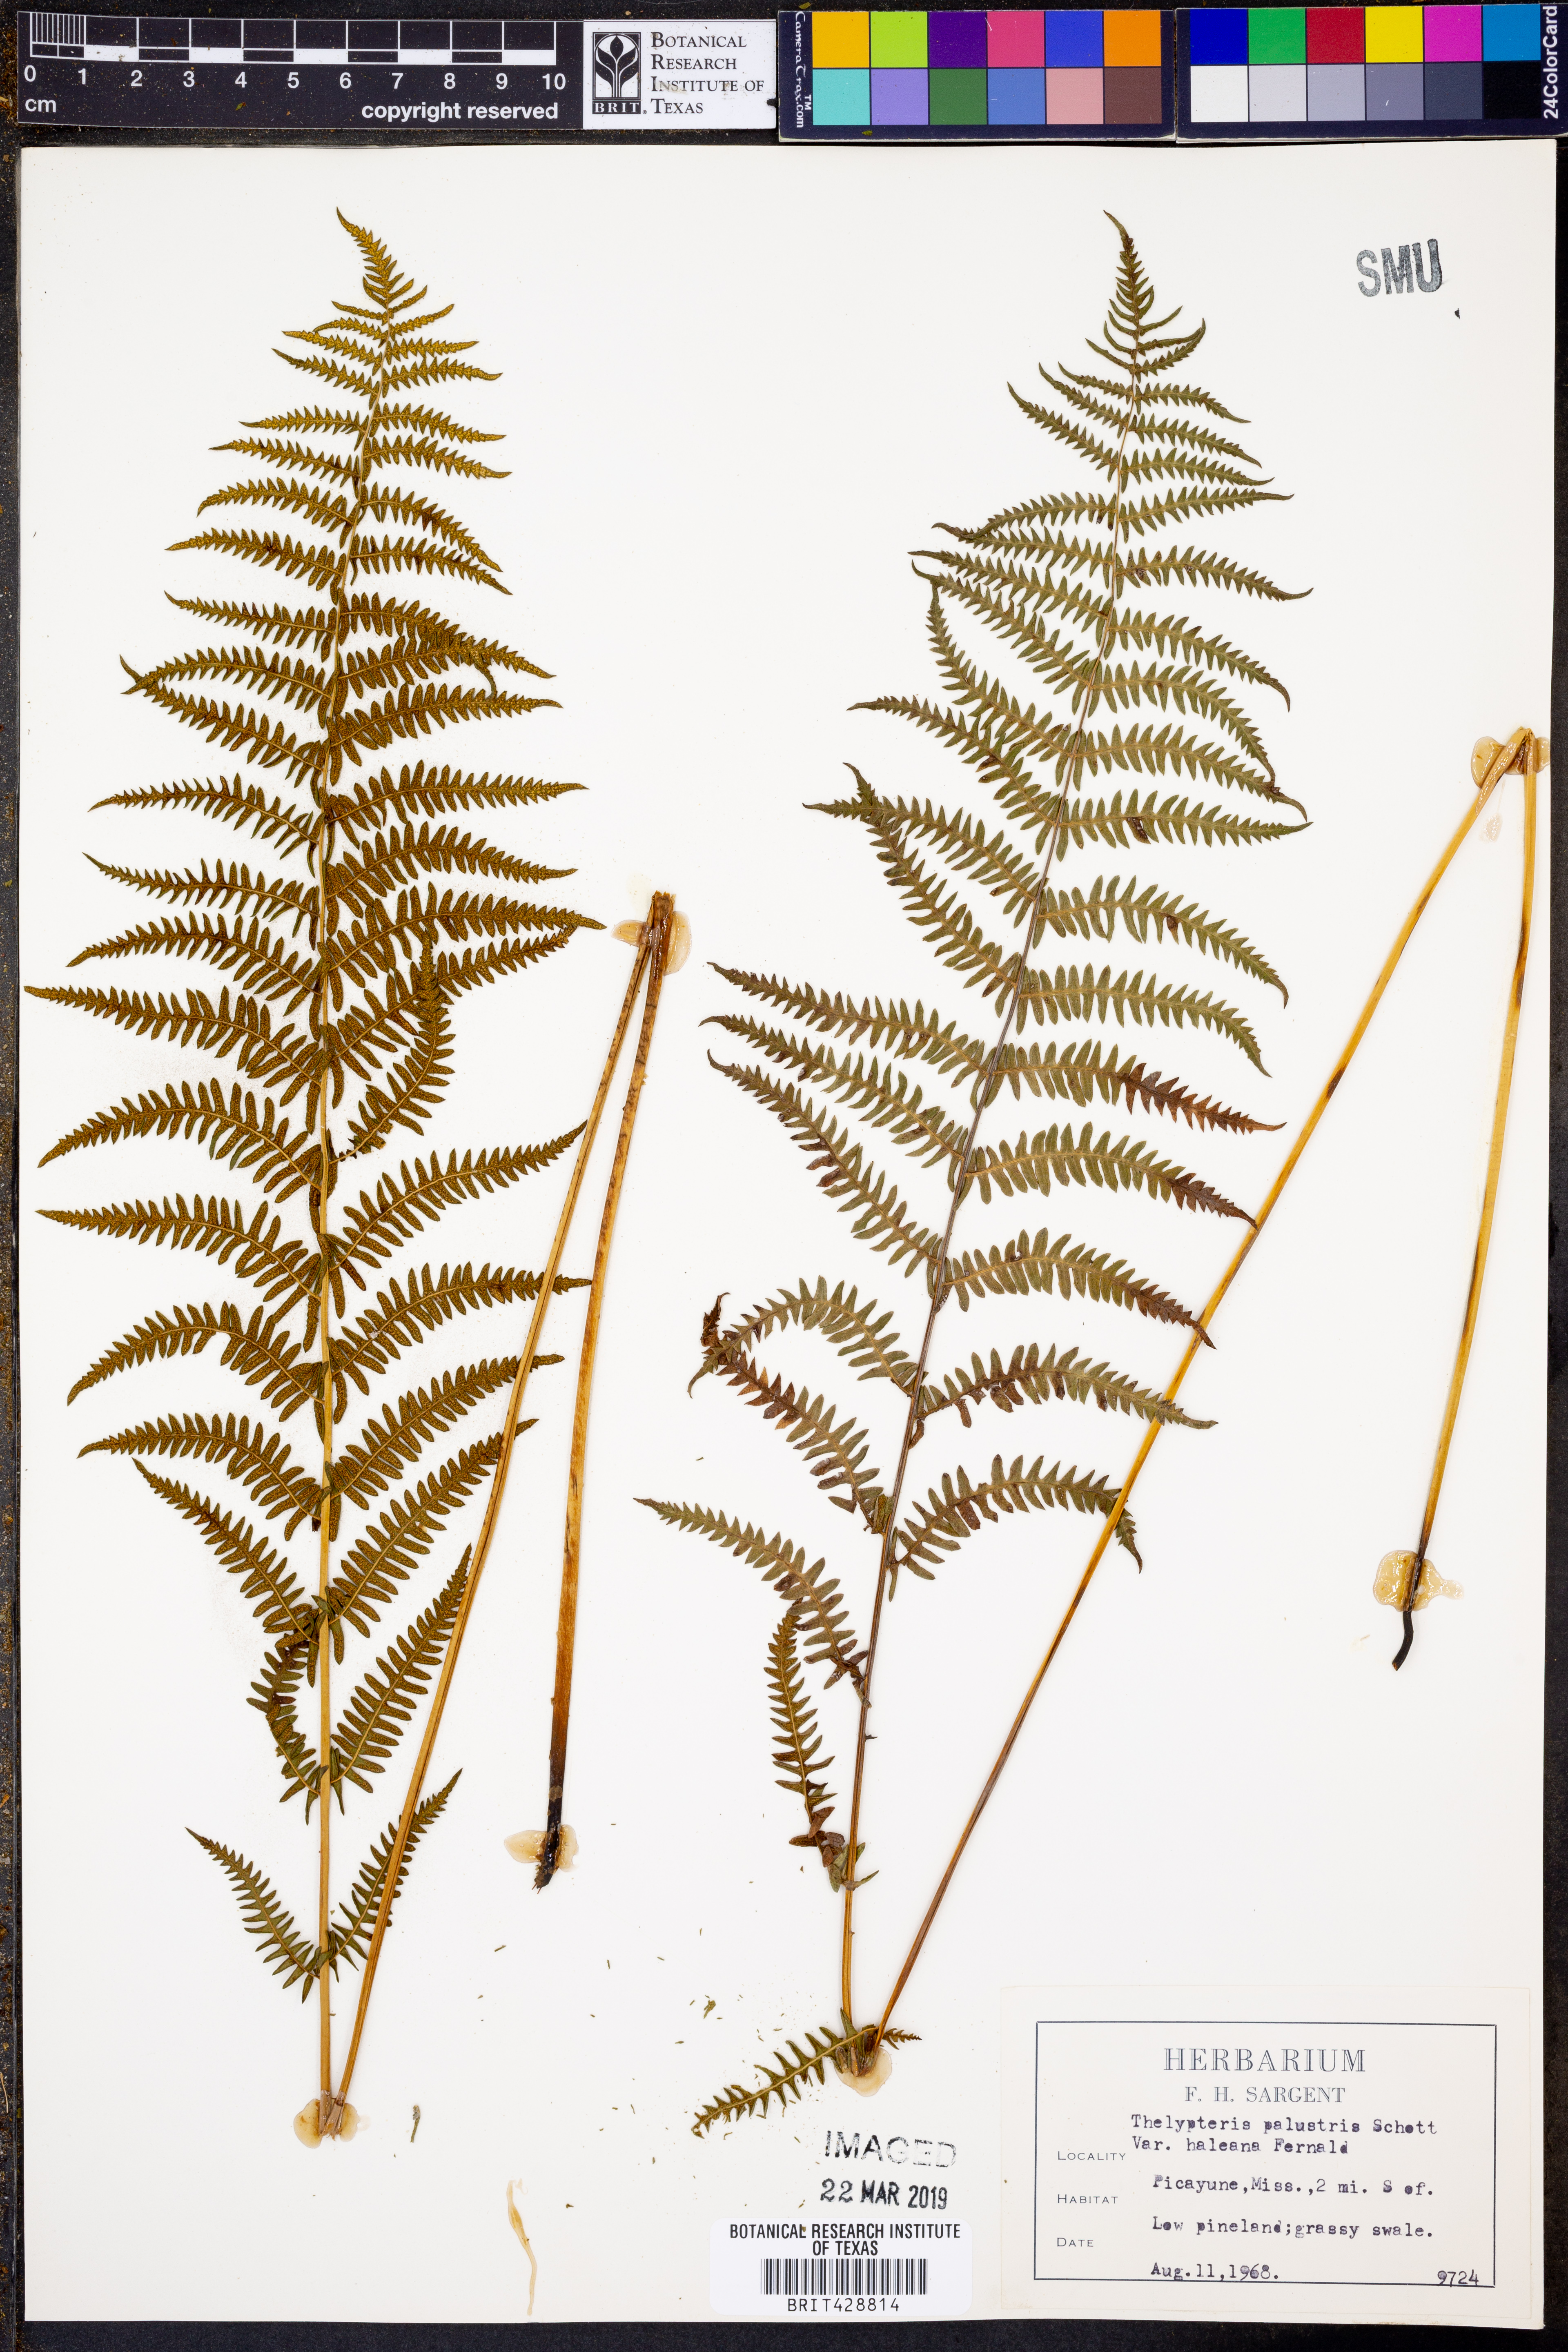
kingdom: Plantae
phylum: Tracheophyta
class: Polypodiopsida
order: Polypodiales
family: Thelypteridaceae
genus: Thelypteris
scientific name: Thelypteris palustris
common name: Marsh fern
